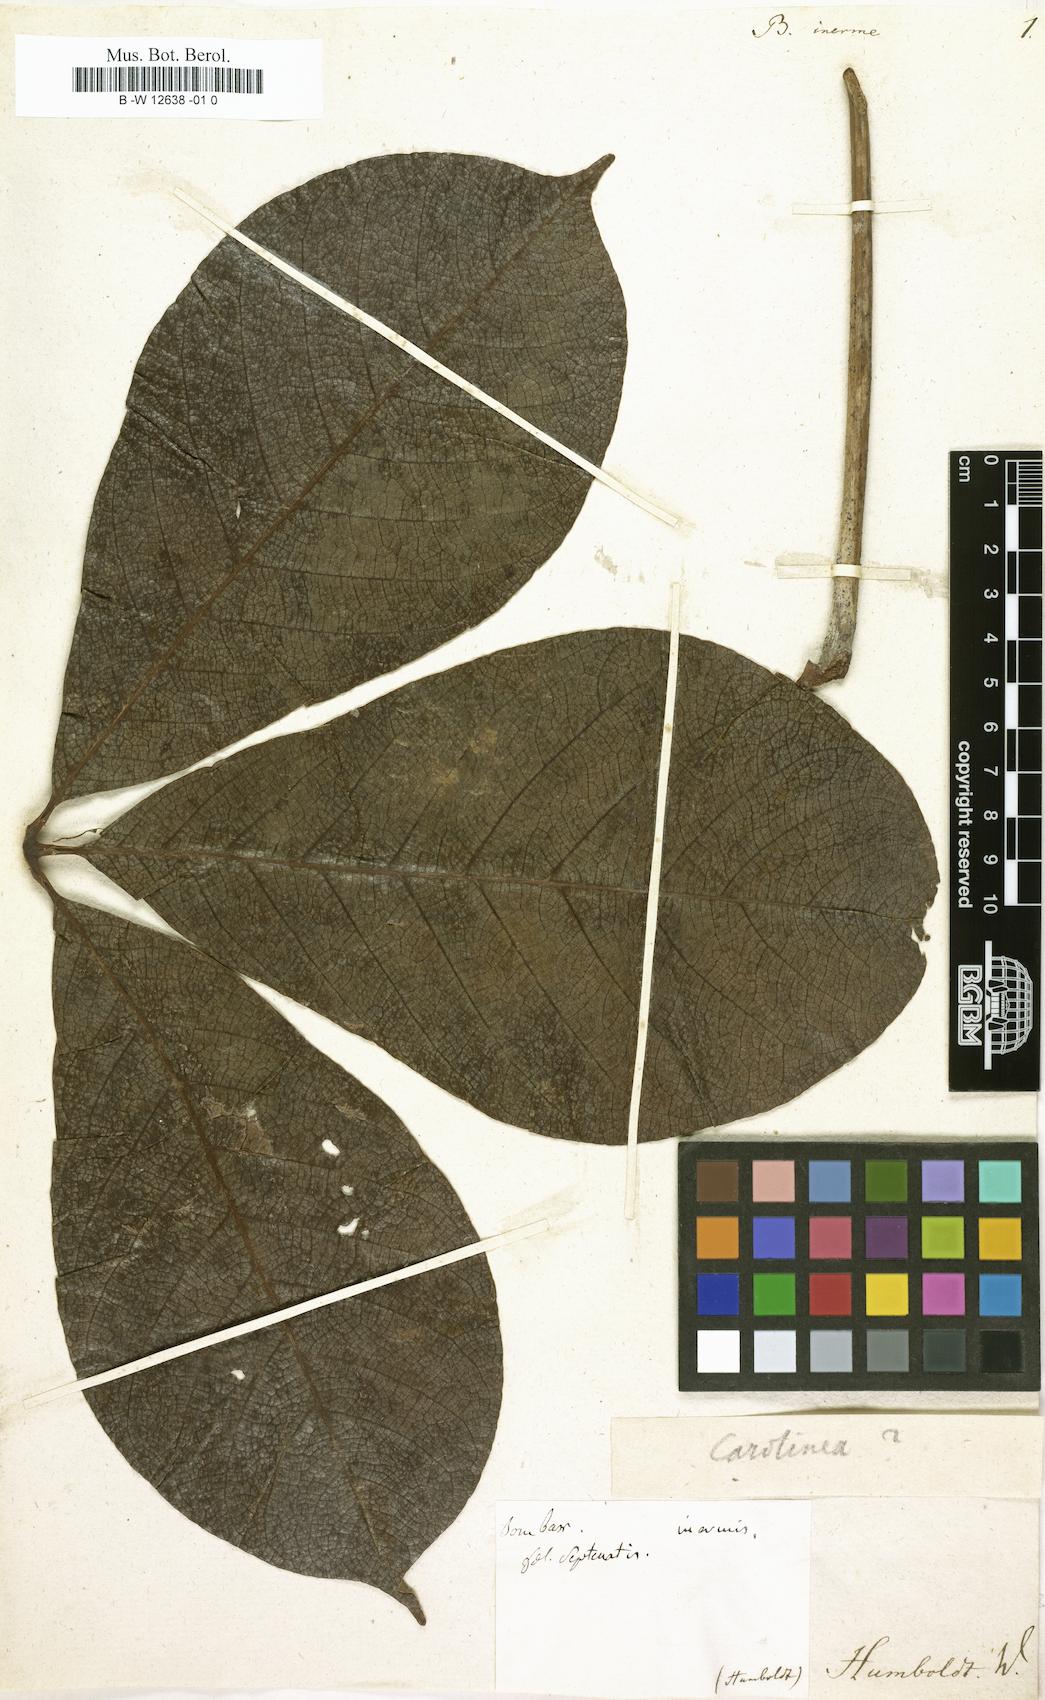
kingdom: Plantae
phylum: Tracheophyta
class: Magnoliopsida
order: Malvales
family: Malvaceae
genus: Ceiba
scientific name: Ceiba pentandra
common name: Kapok
